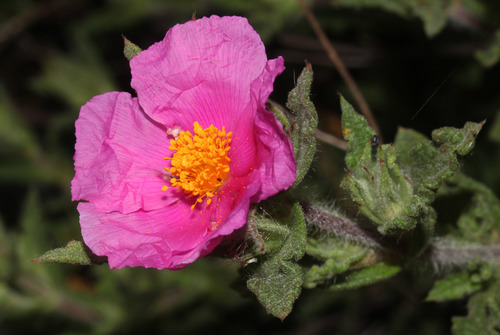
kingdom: Plantae
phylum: Tracheophyta
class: Magnoliopsida
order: Malvales
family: Cistaceae
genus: Cistus
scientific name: Cistus crispus
